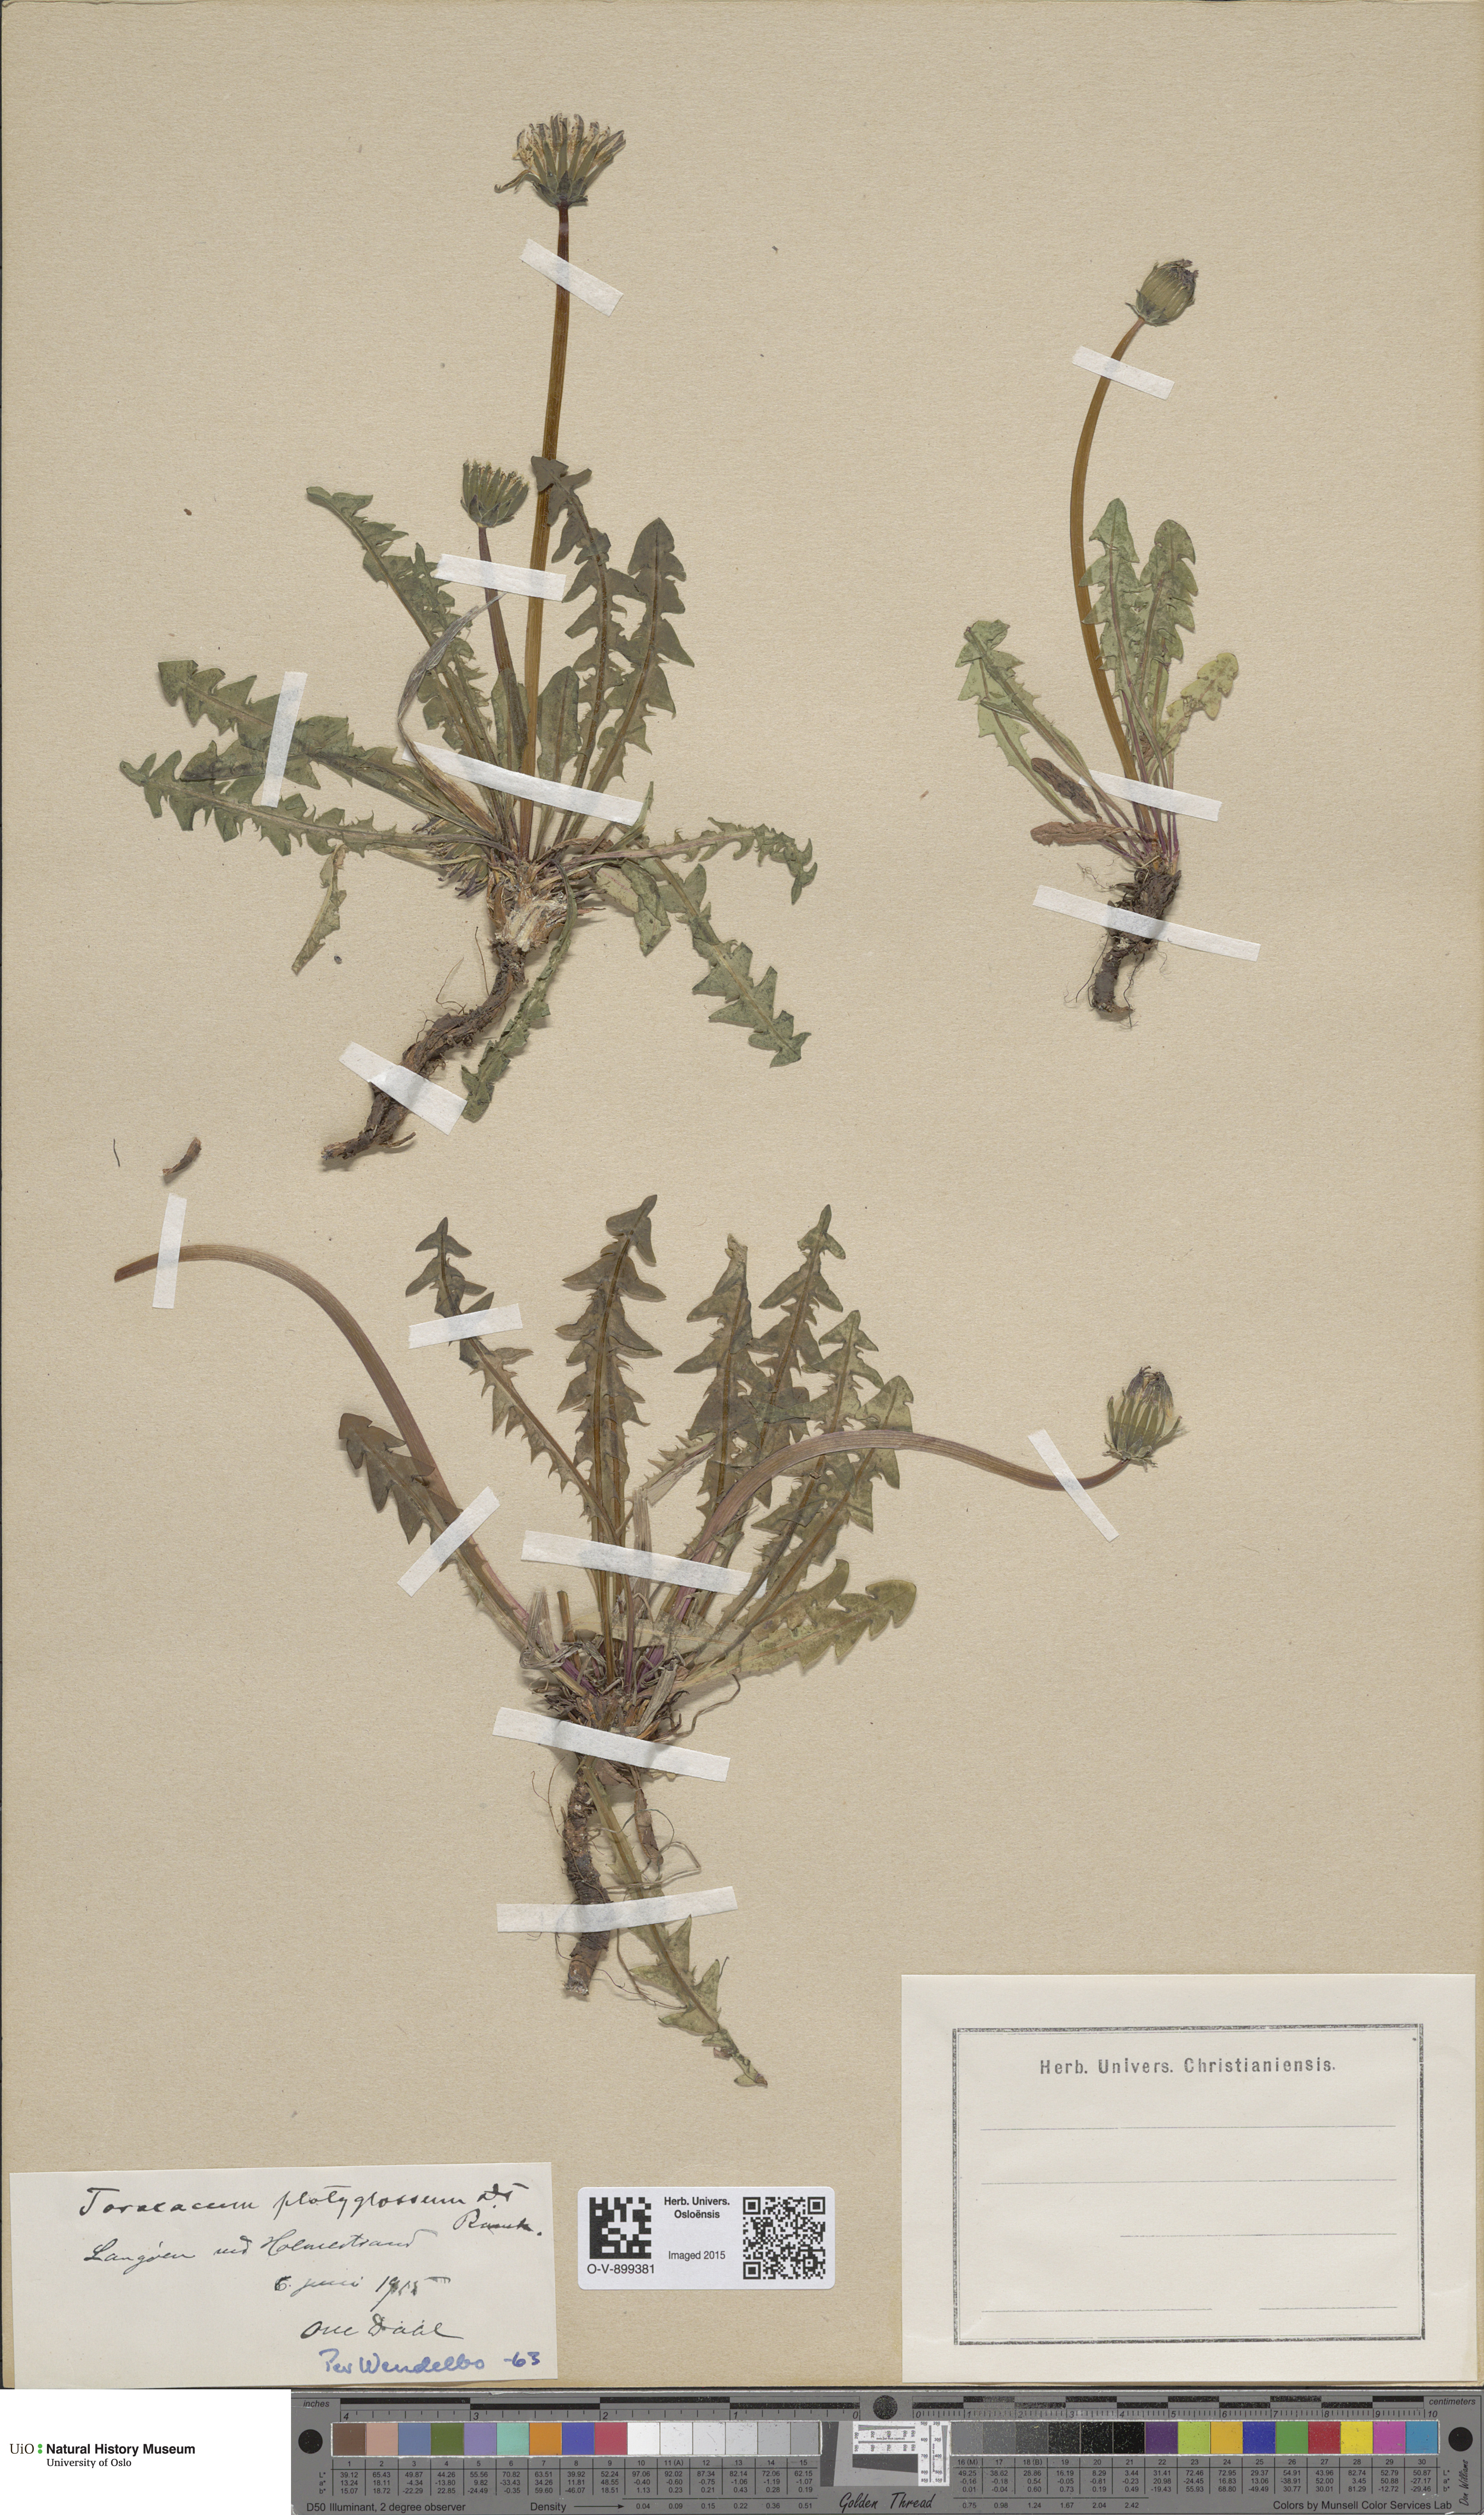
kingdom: Plantae
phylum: Tracheophyta
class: Magnoliopsida
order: Asterales
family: Asteraceae
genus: Taraxacum
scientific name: Taraxacum platyglossum
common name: Tongue-leaved dandelion
